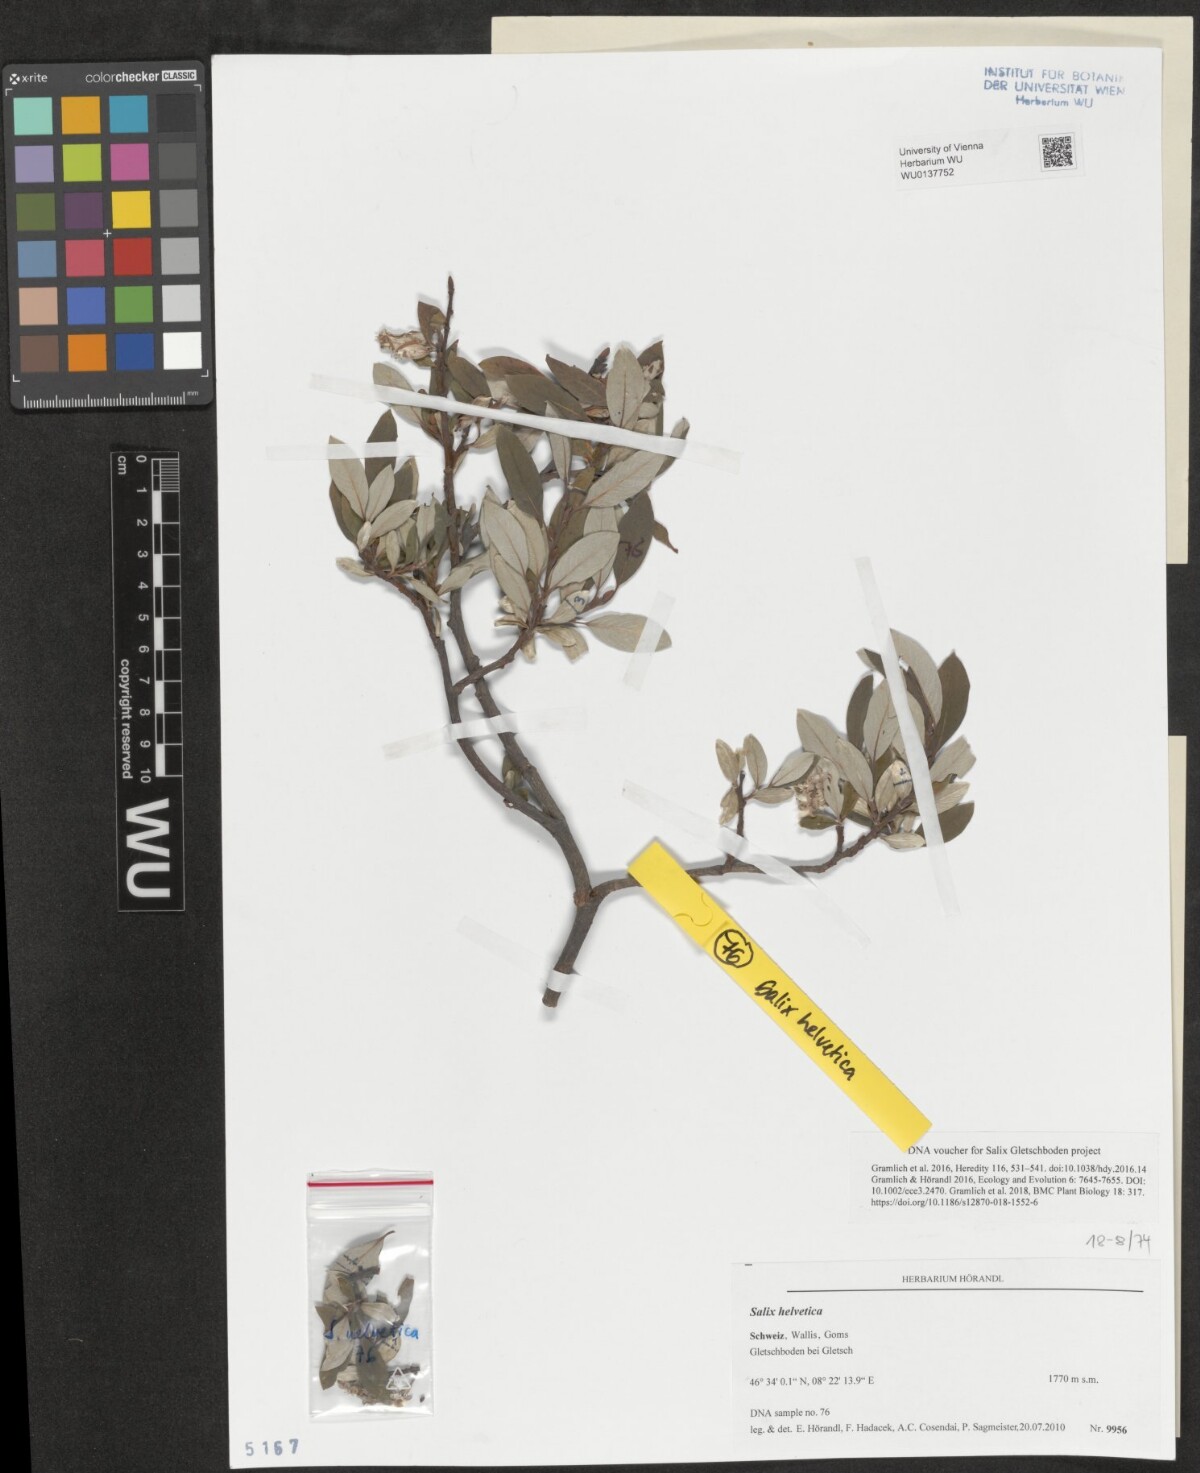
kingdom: Plantae
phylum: Tracheophyta
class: Magnoliopsida
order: Malpighiales
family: Salicaceae
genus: Salix
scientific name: Salix helvetica
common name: Swiss willow
